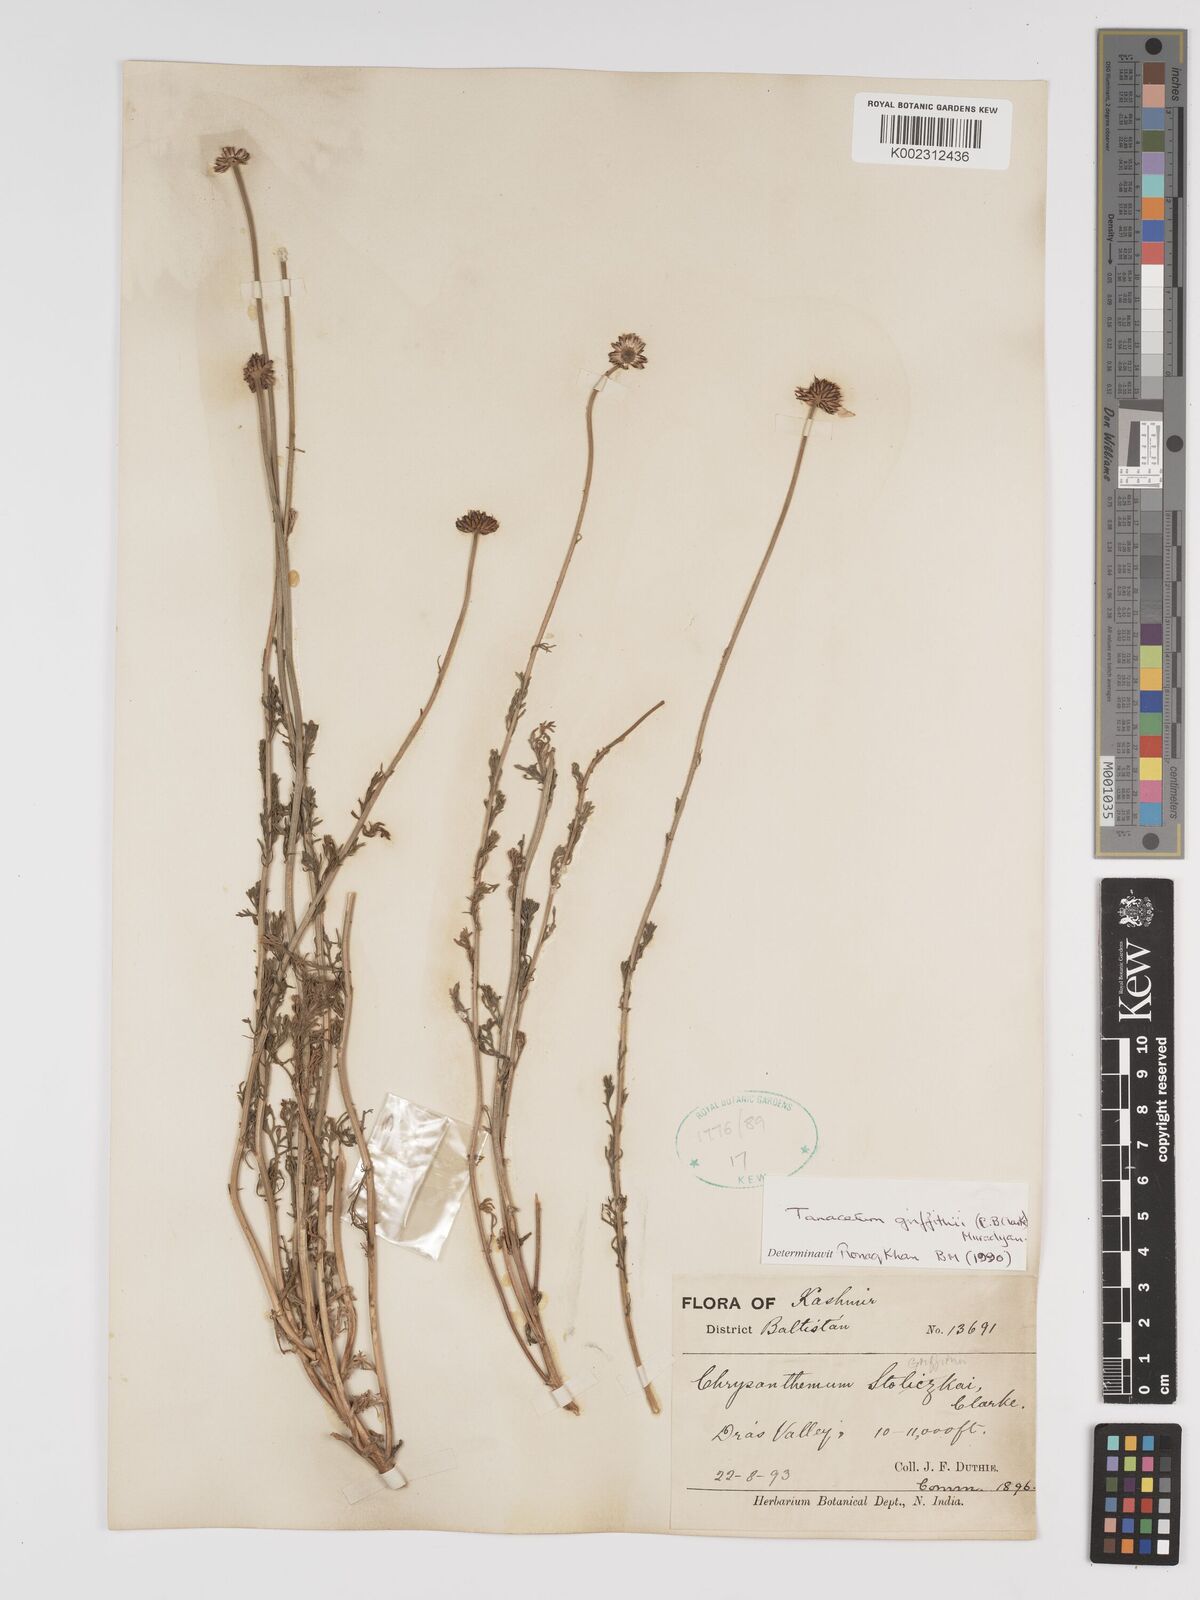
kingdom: Plantae
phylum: Tracheophyta
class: Magnoliopsida
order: Asterales
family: Asteraceae
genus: Tanacetum
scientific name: Tanacetum griffithii
